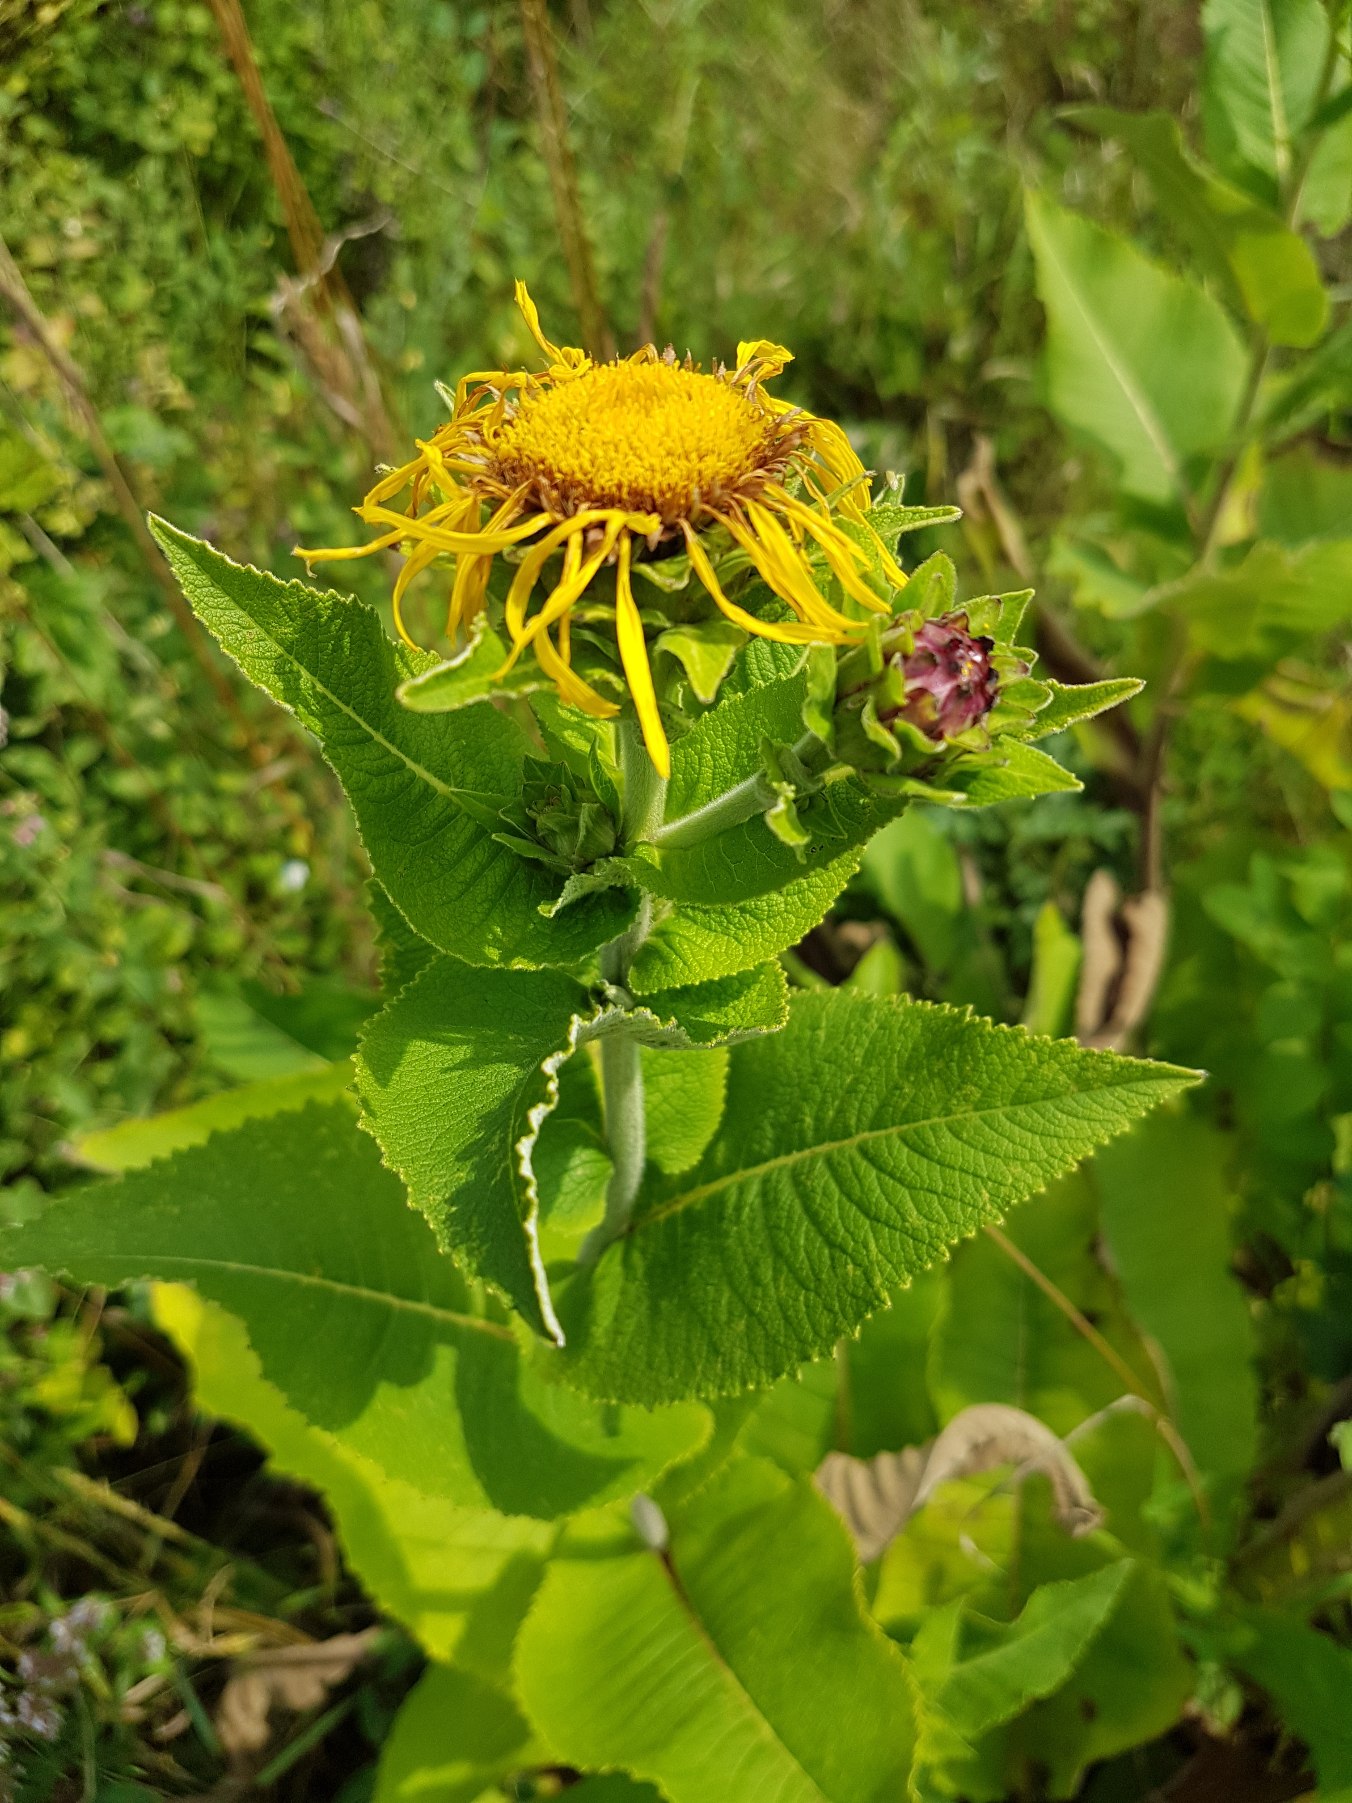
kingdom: Plantae
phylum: Tracheophyta
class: Magnoliopsida
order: Asterales
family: Asteraceae
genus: Inula
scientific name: Inula helenium
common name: Læge-alant
